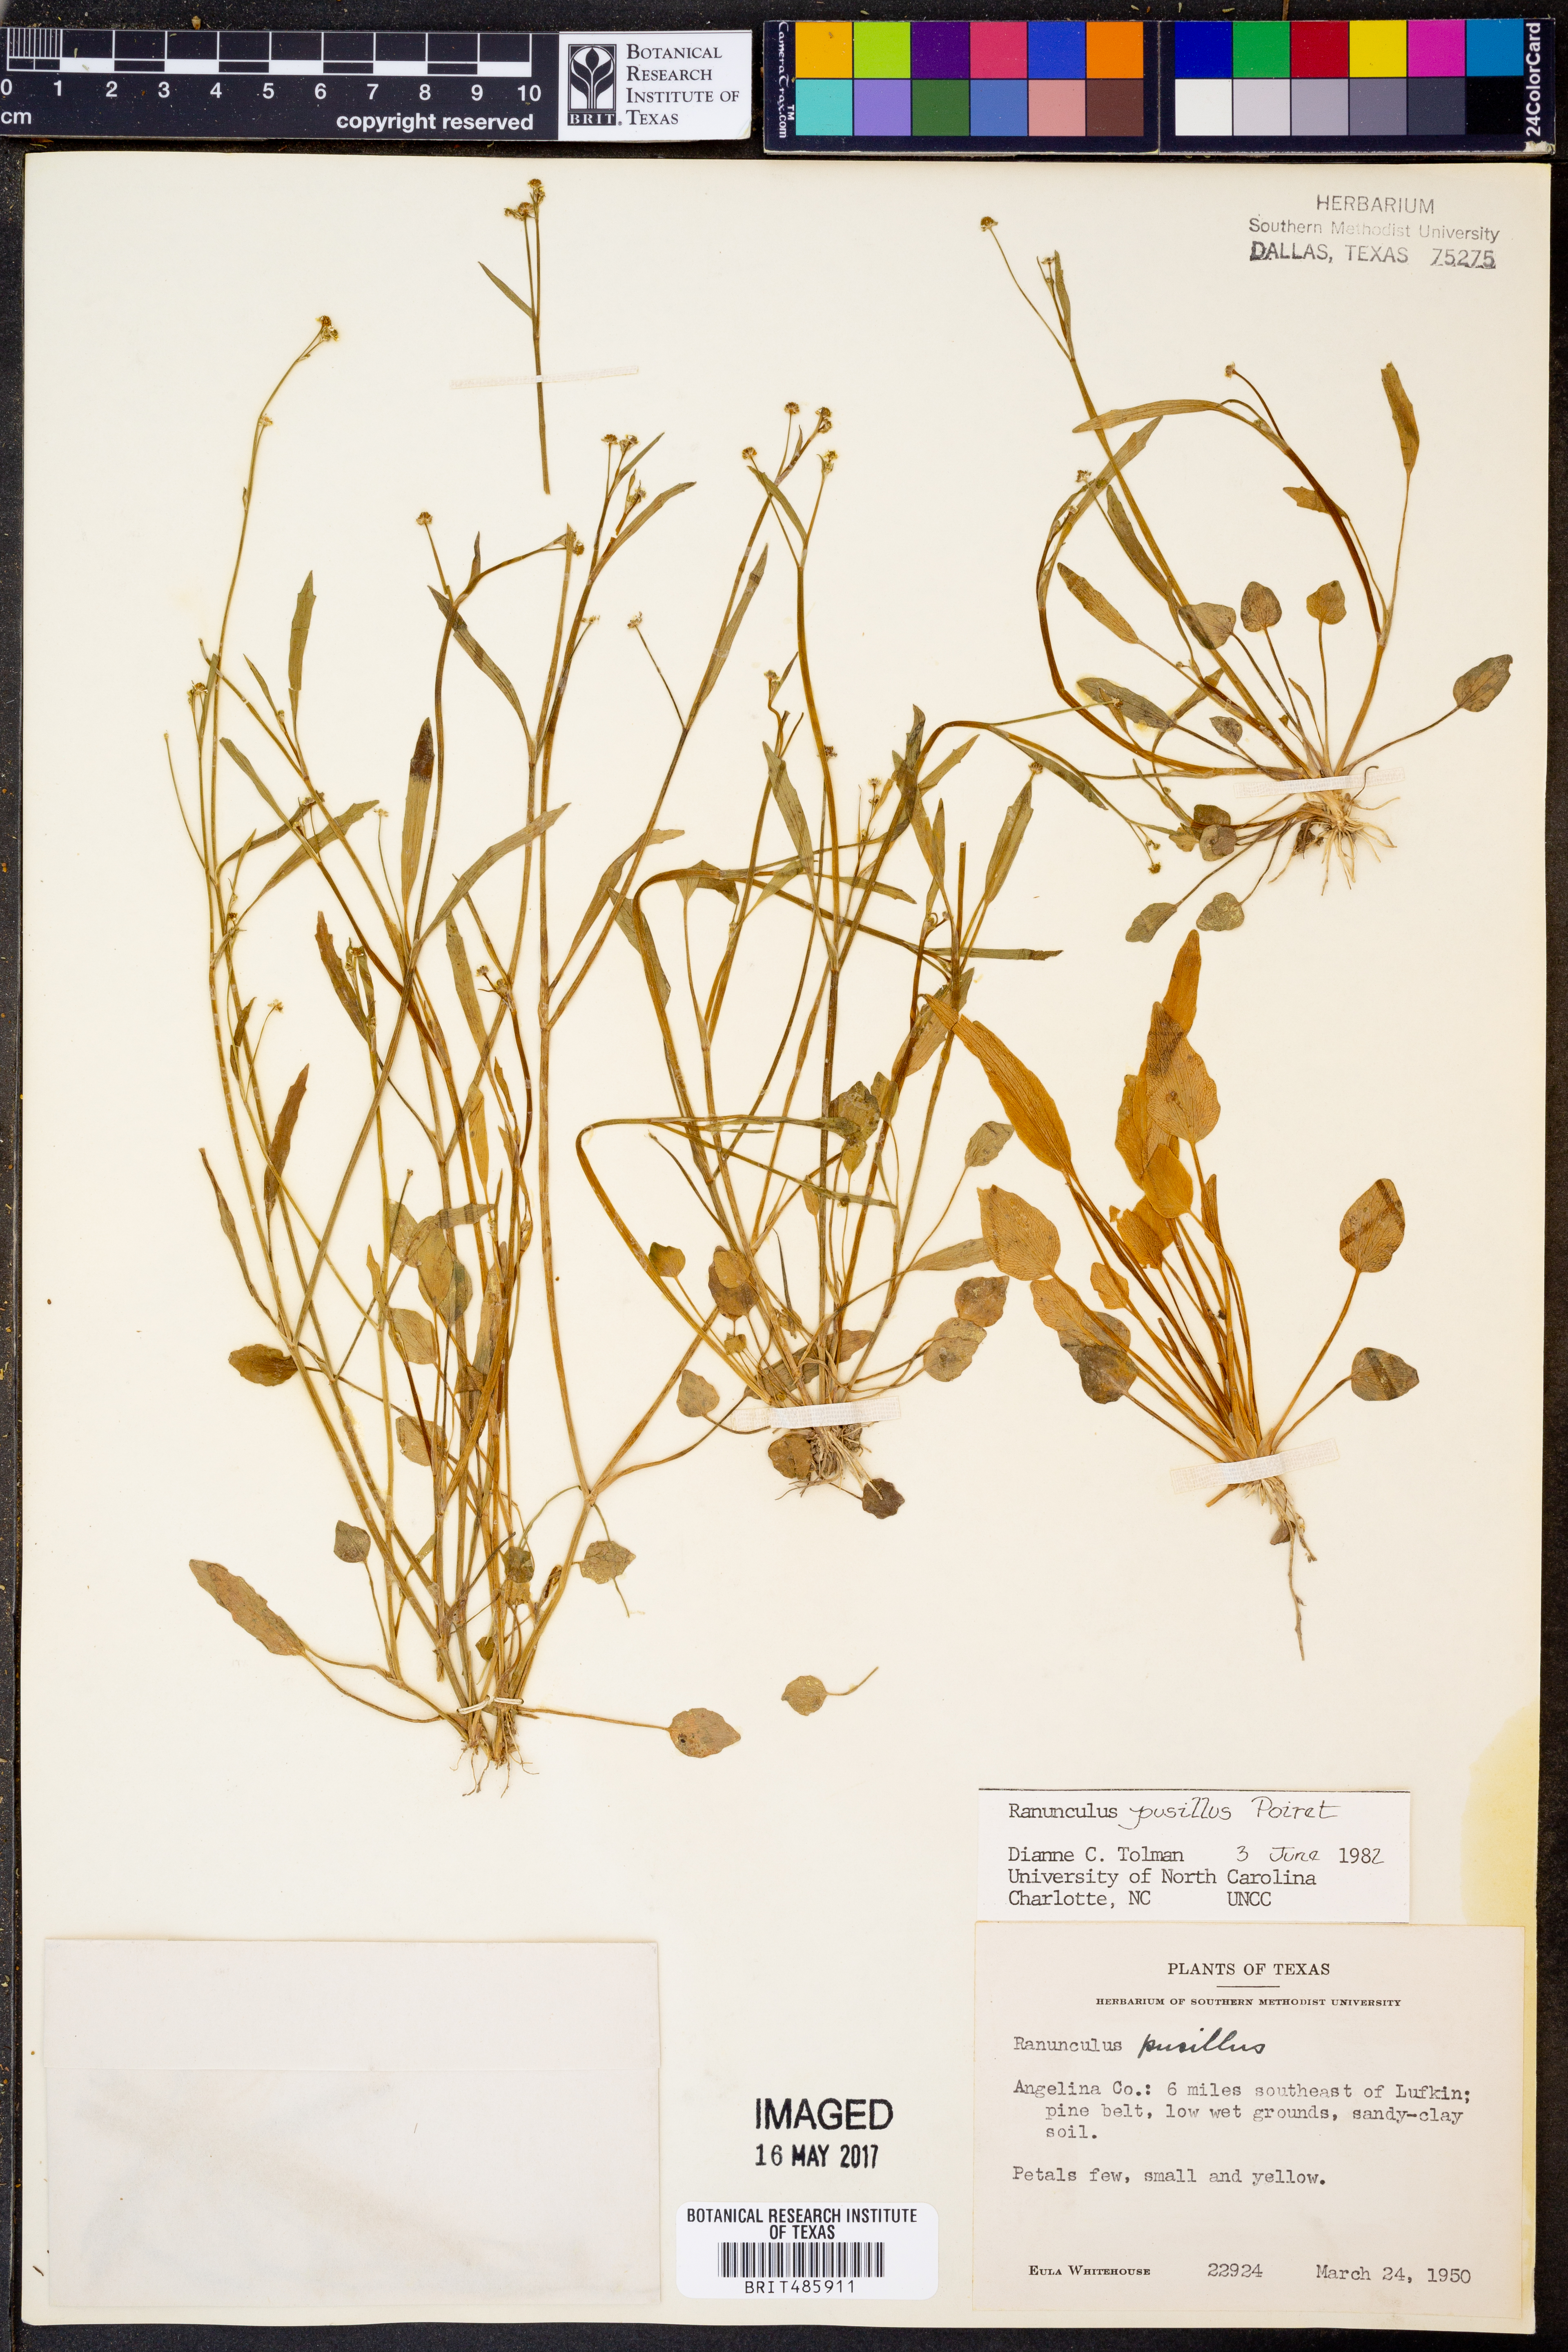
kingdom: Plantae
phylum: Tracheophyta
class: Magnoliopsida
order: Ranunculales
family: Ranunculaceae
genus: Ranunculus
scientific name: Ranunculus pusillus
